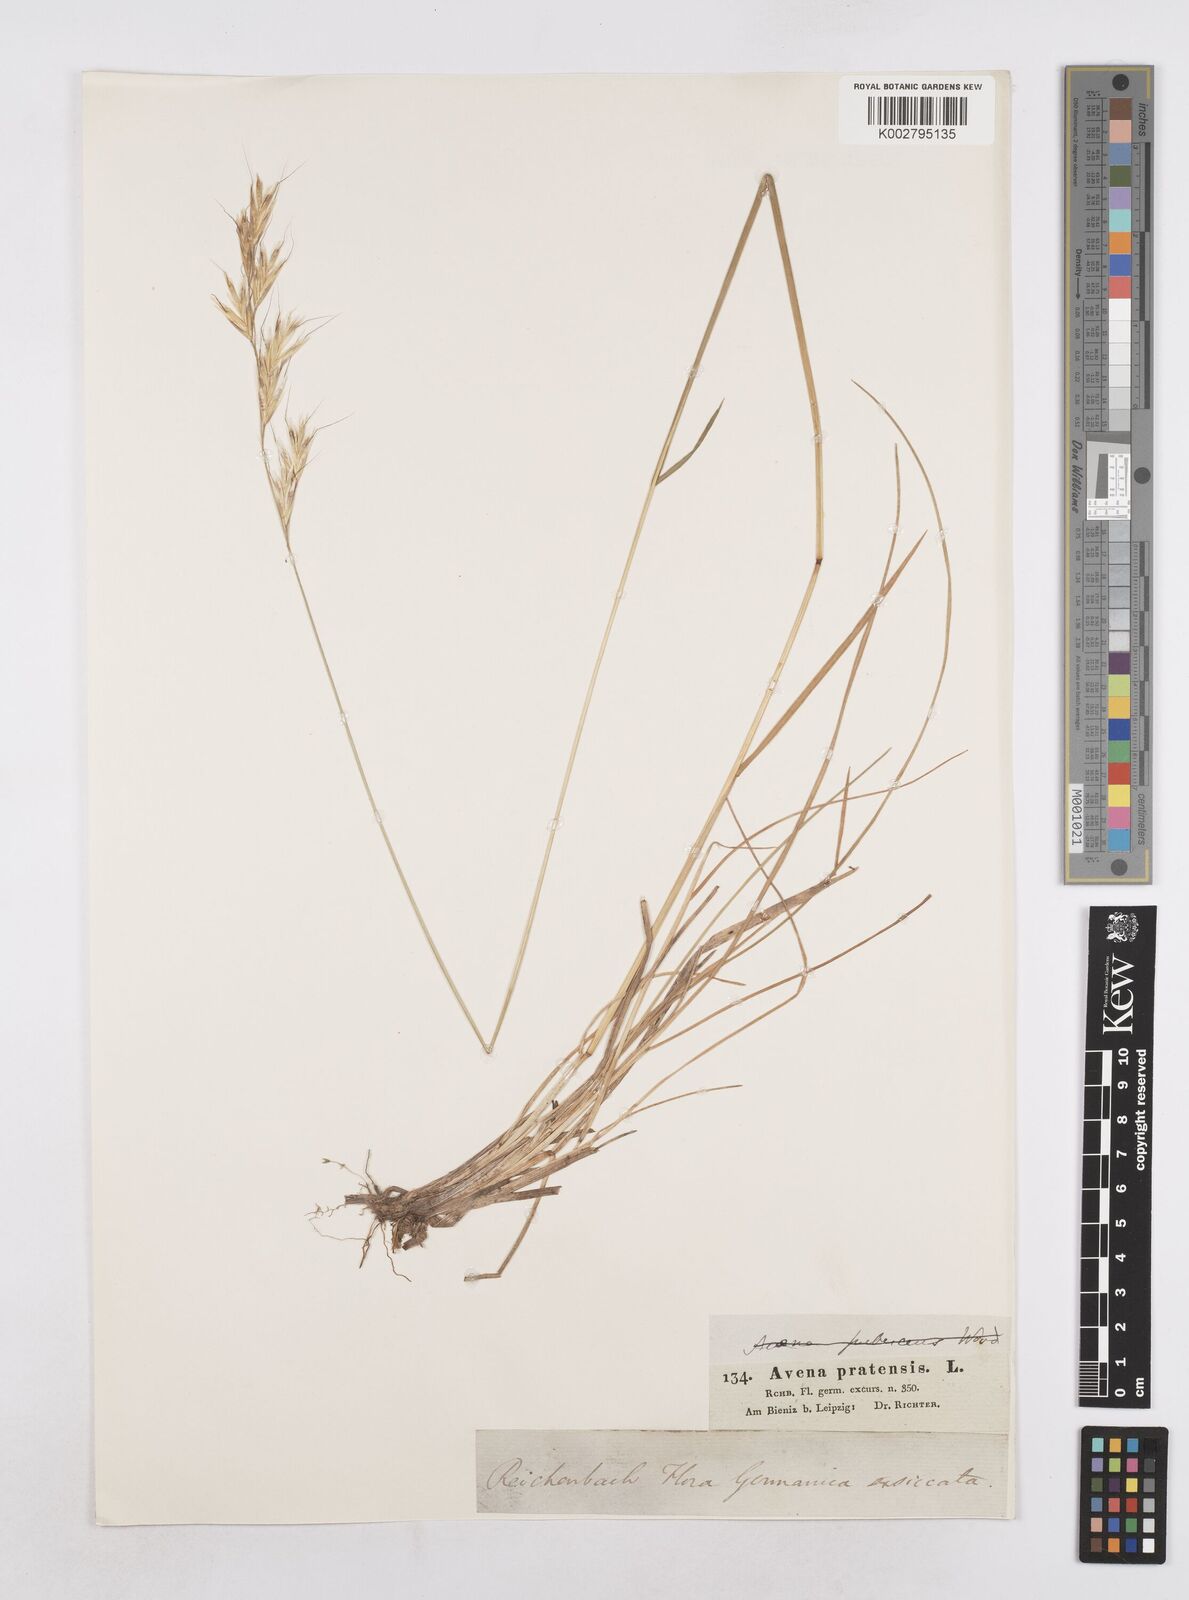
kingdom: Plantae
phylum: Tracheophyta
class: Liliopsida
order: Poales
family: Poaceae
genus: Helictochloa
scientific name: Helictochloa pratensis
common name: Meadow oat grass
